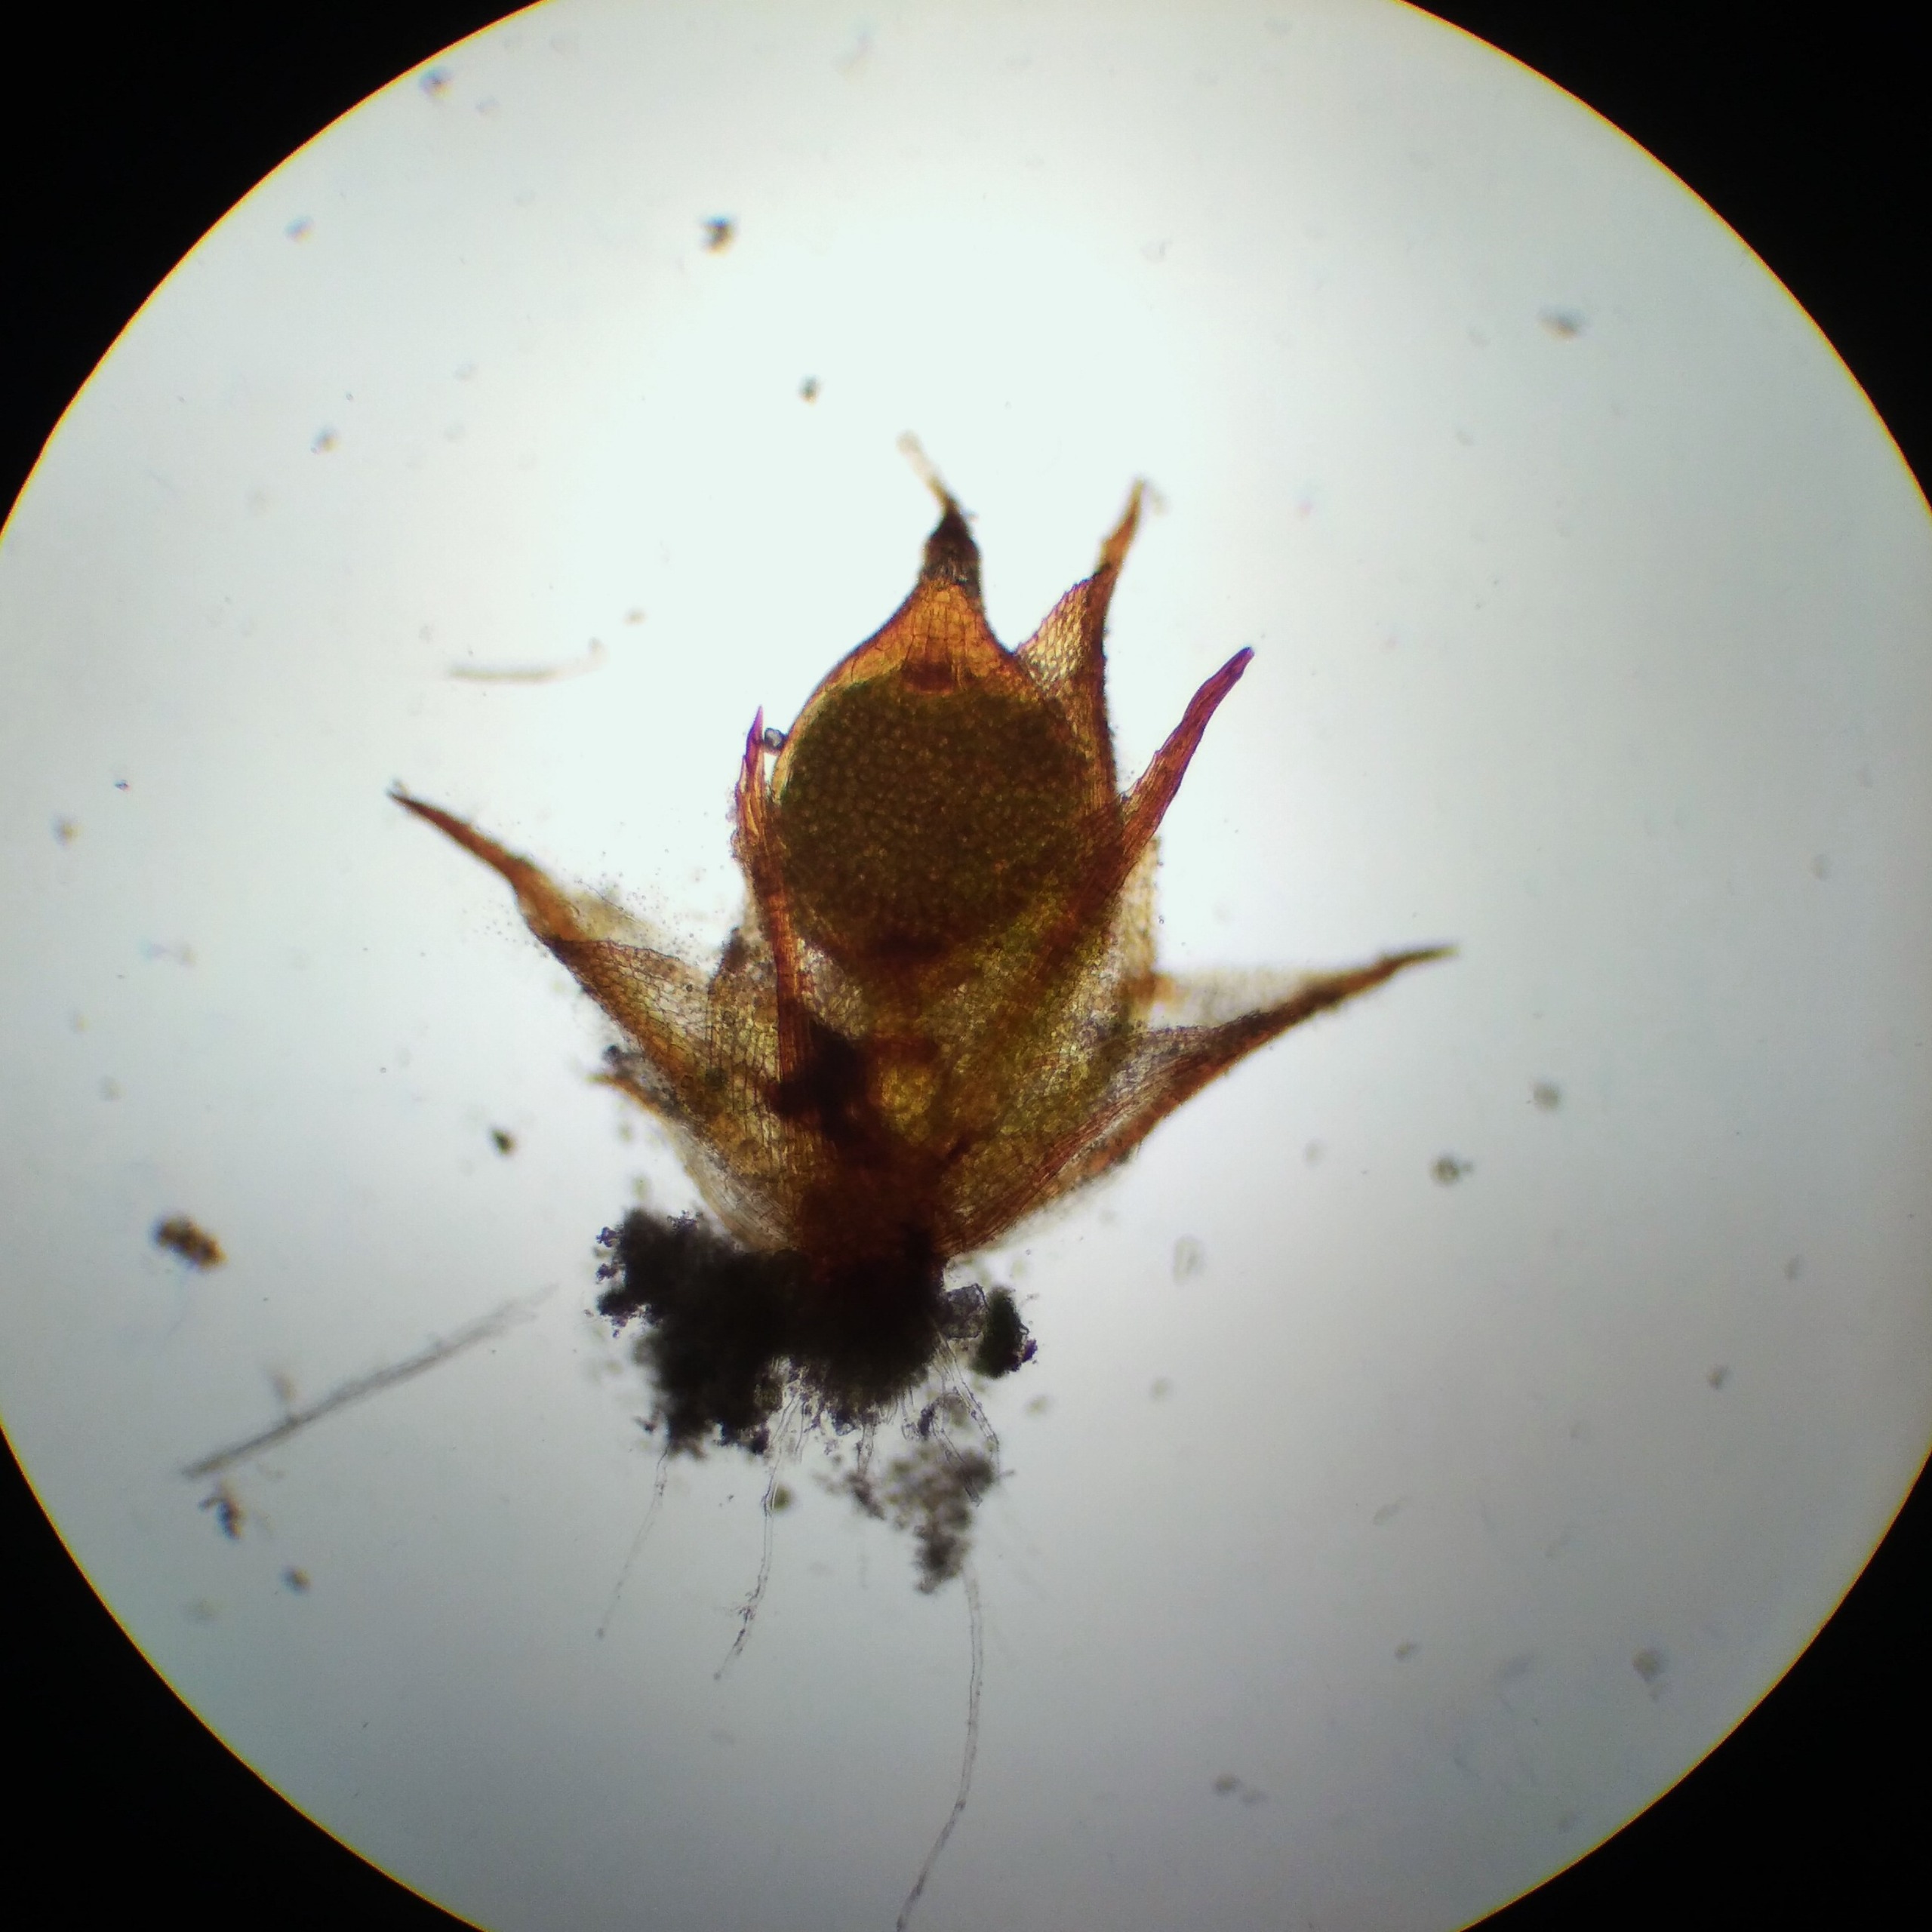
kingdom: Plantae
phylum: Bryophyta
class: Bryopsida
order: Pottiales
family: Pottiaceae
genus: Microbryum
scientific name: Microbryum floerkeanum
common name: Dværg-småmos
